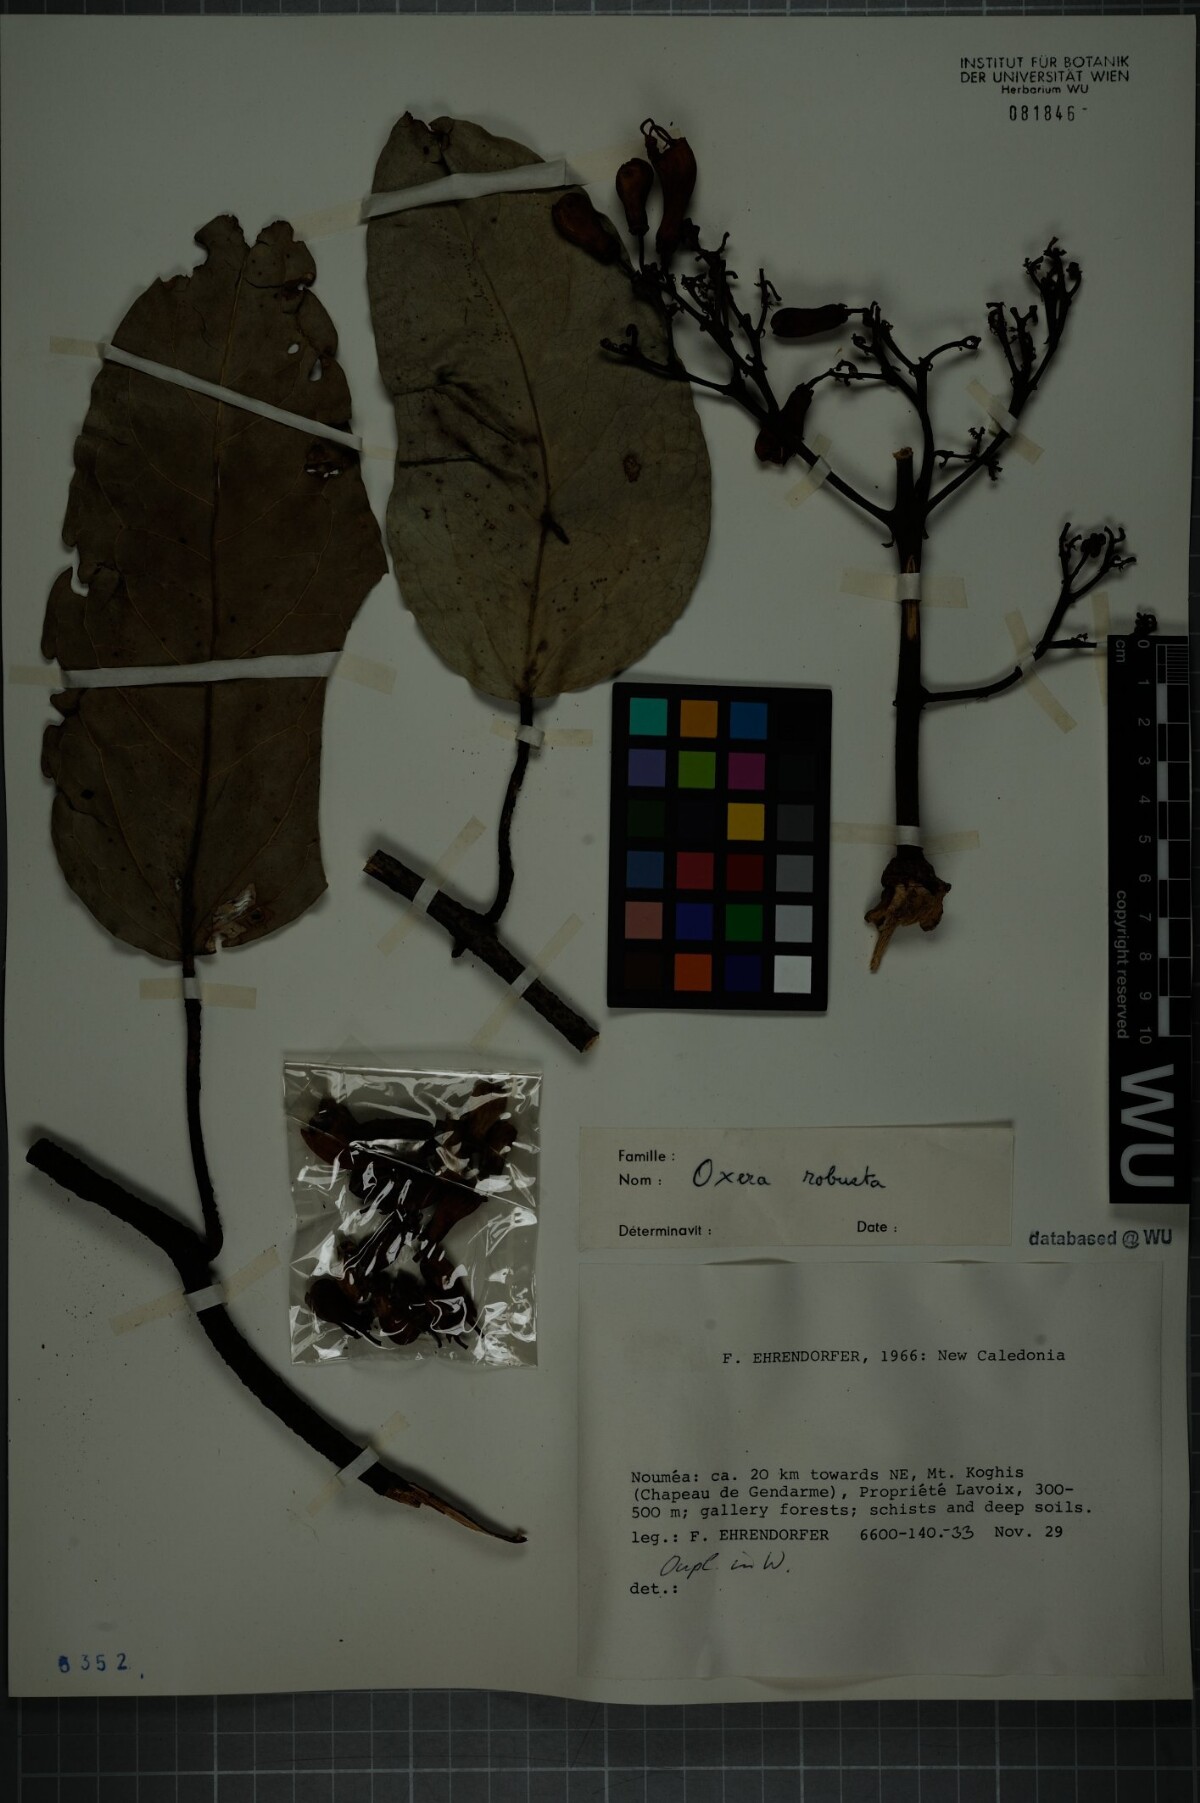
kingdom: Plantae
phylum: Tracheophyta
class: Magnoliopsida
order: Lamiales
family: Lamiaceae
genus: Oxera
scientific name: Oxera robusta
